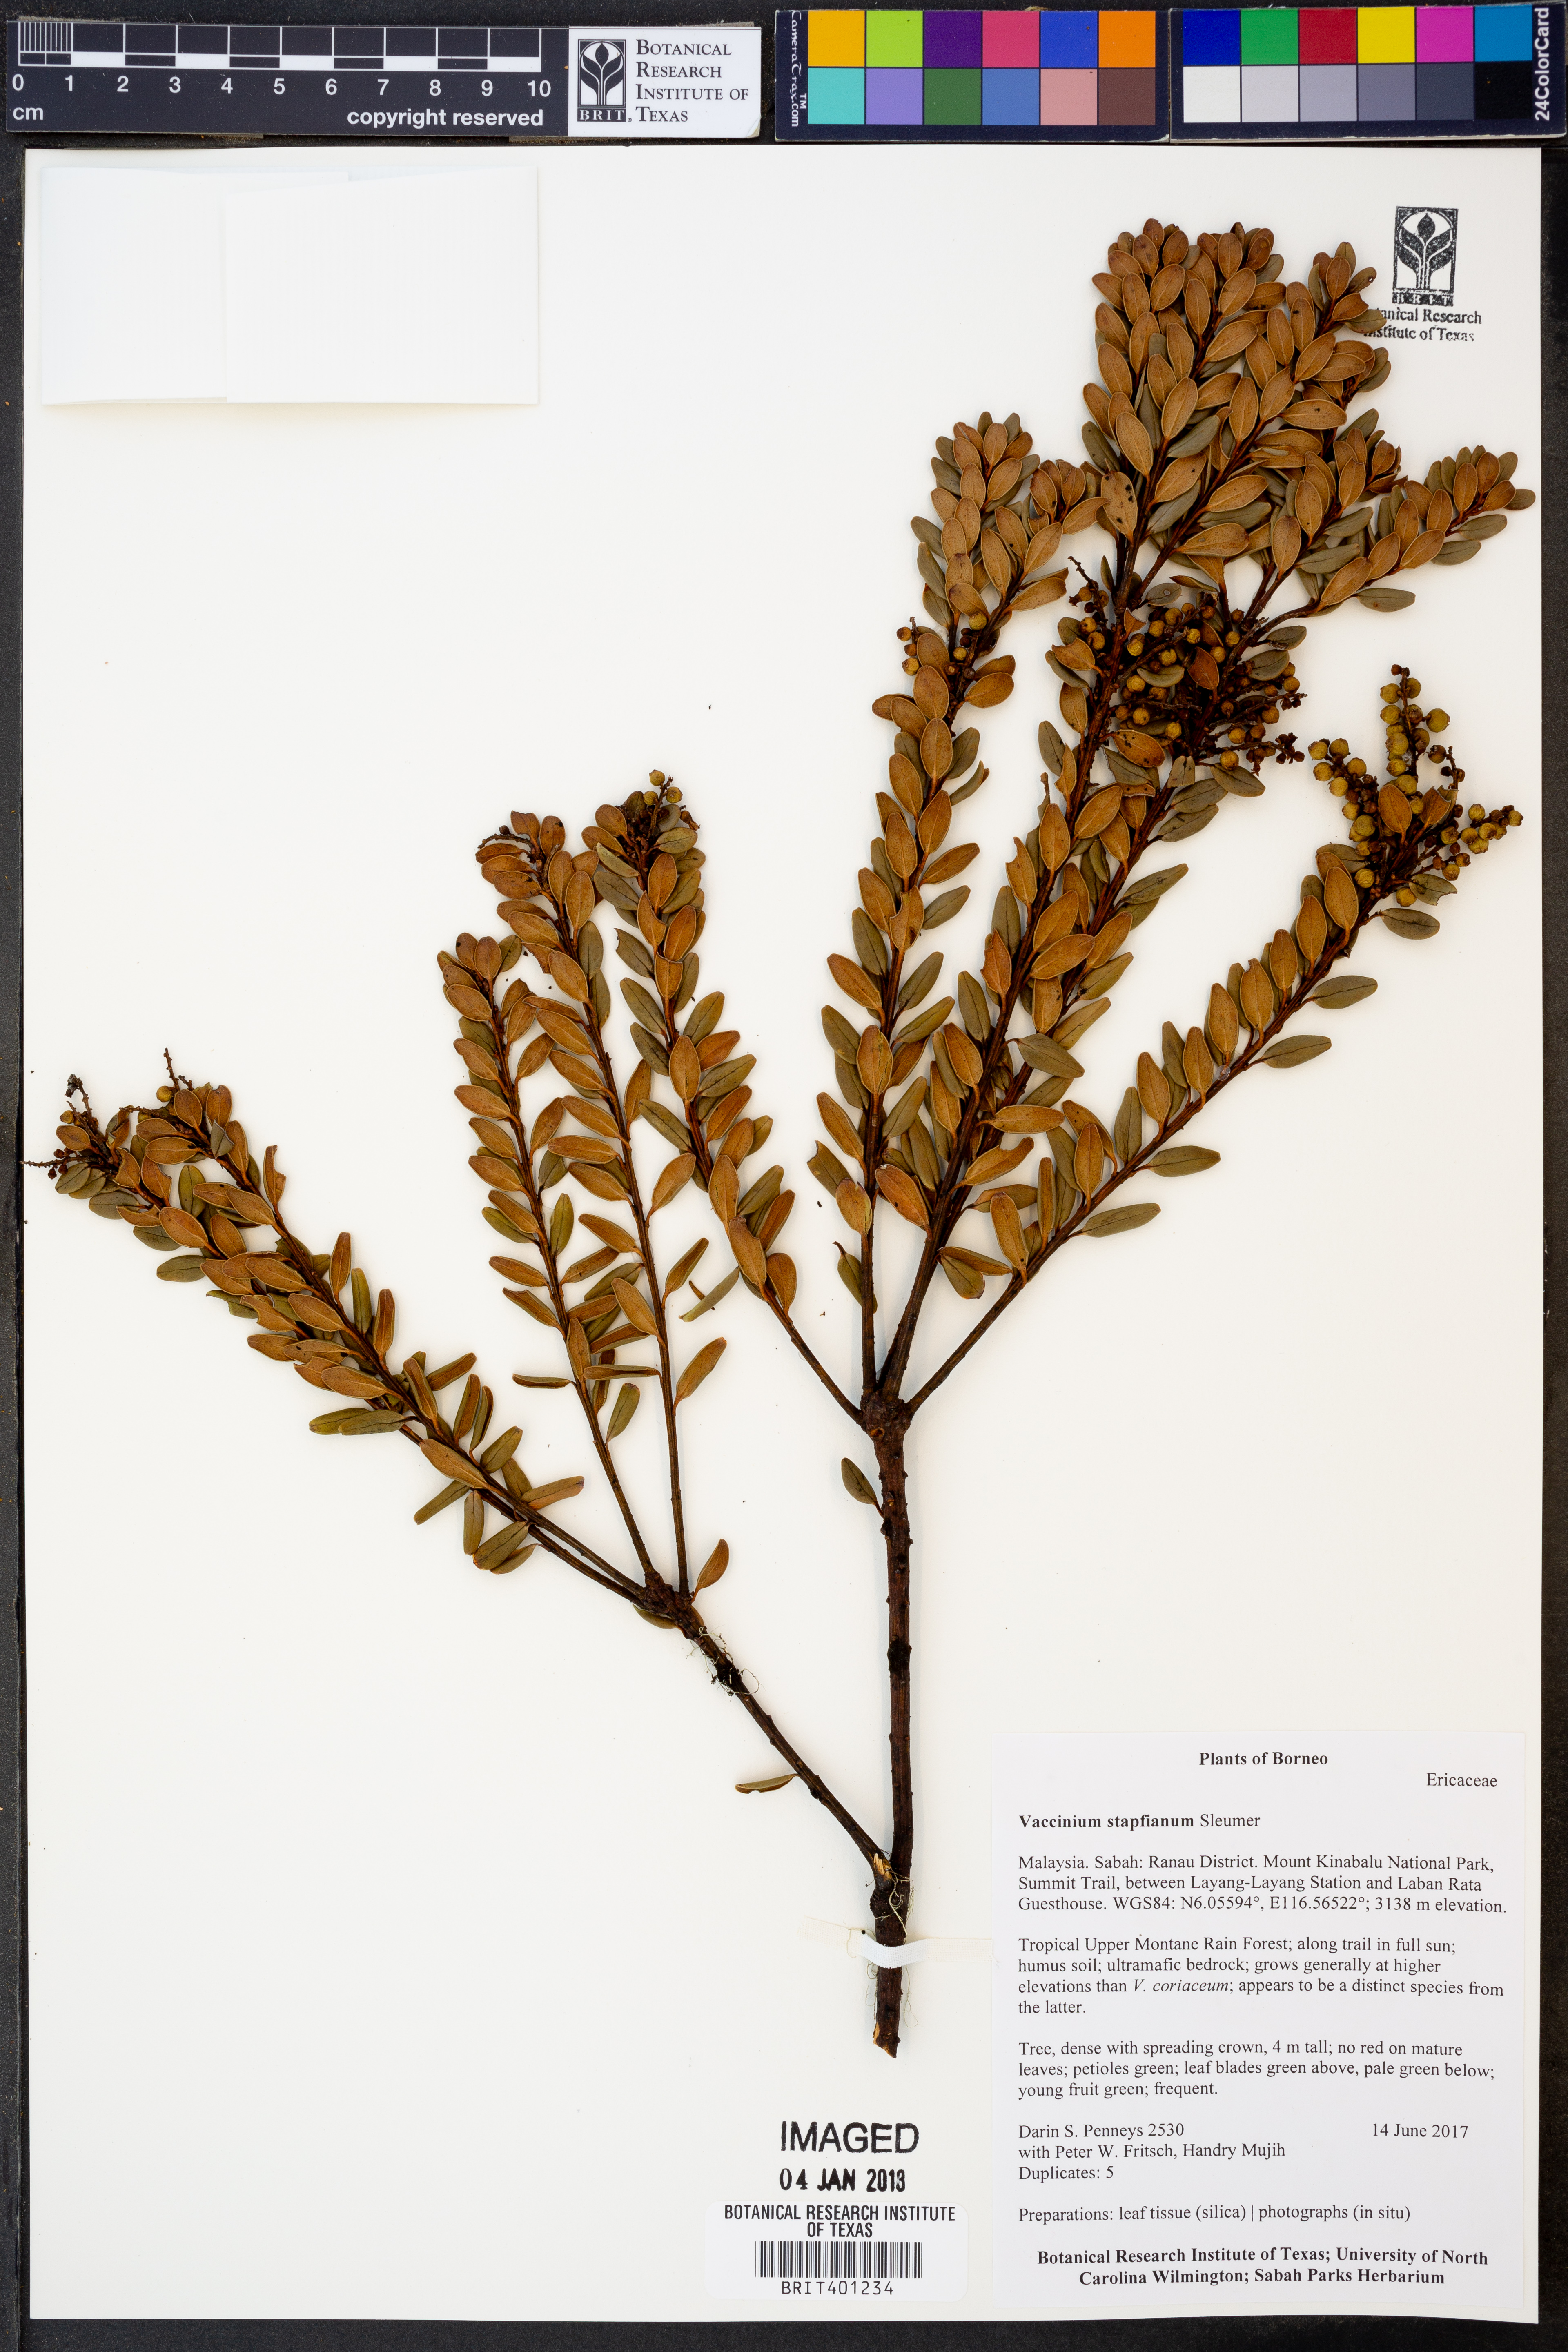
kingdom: Plantae
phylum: Tracheophyta
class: Magnoliopsida
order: Ericales
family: Ericaceae
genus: Vaccinium
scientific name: Vaccinium coriaceum
